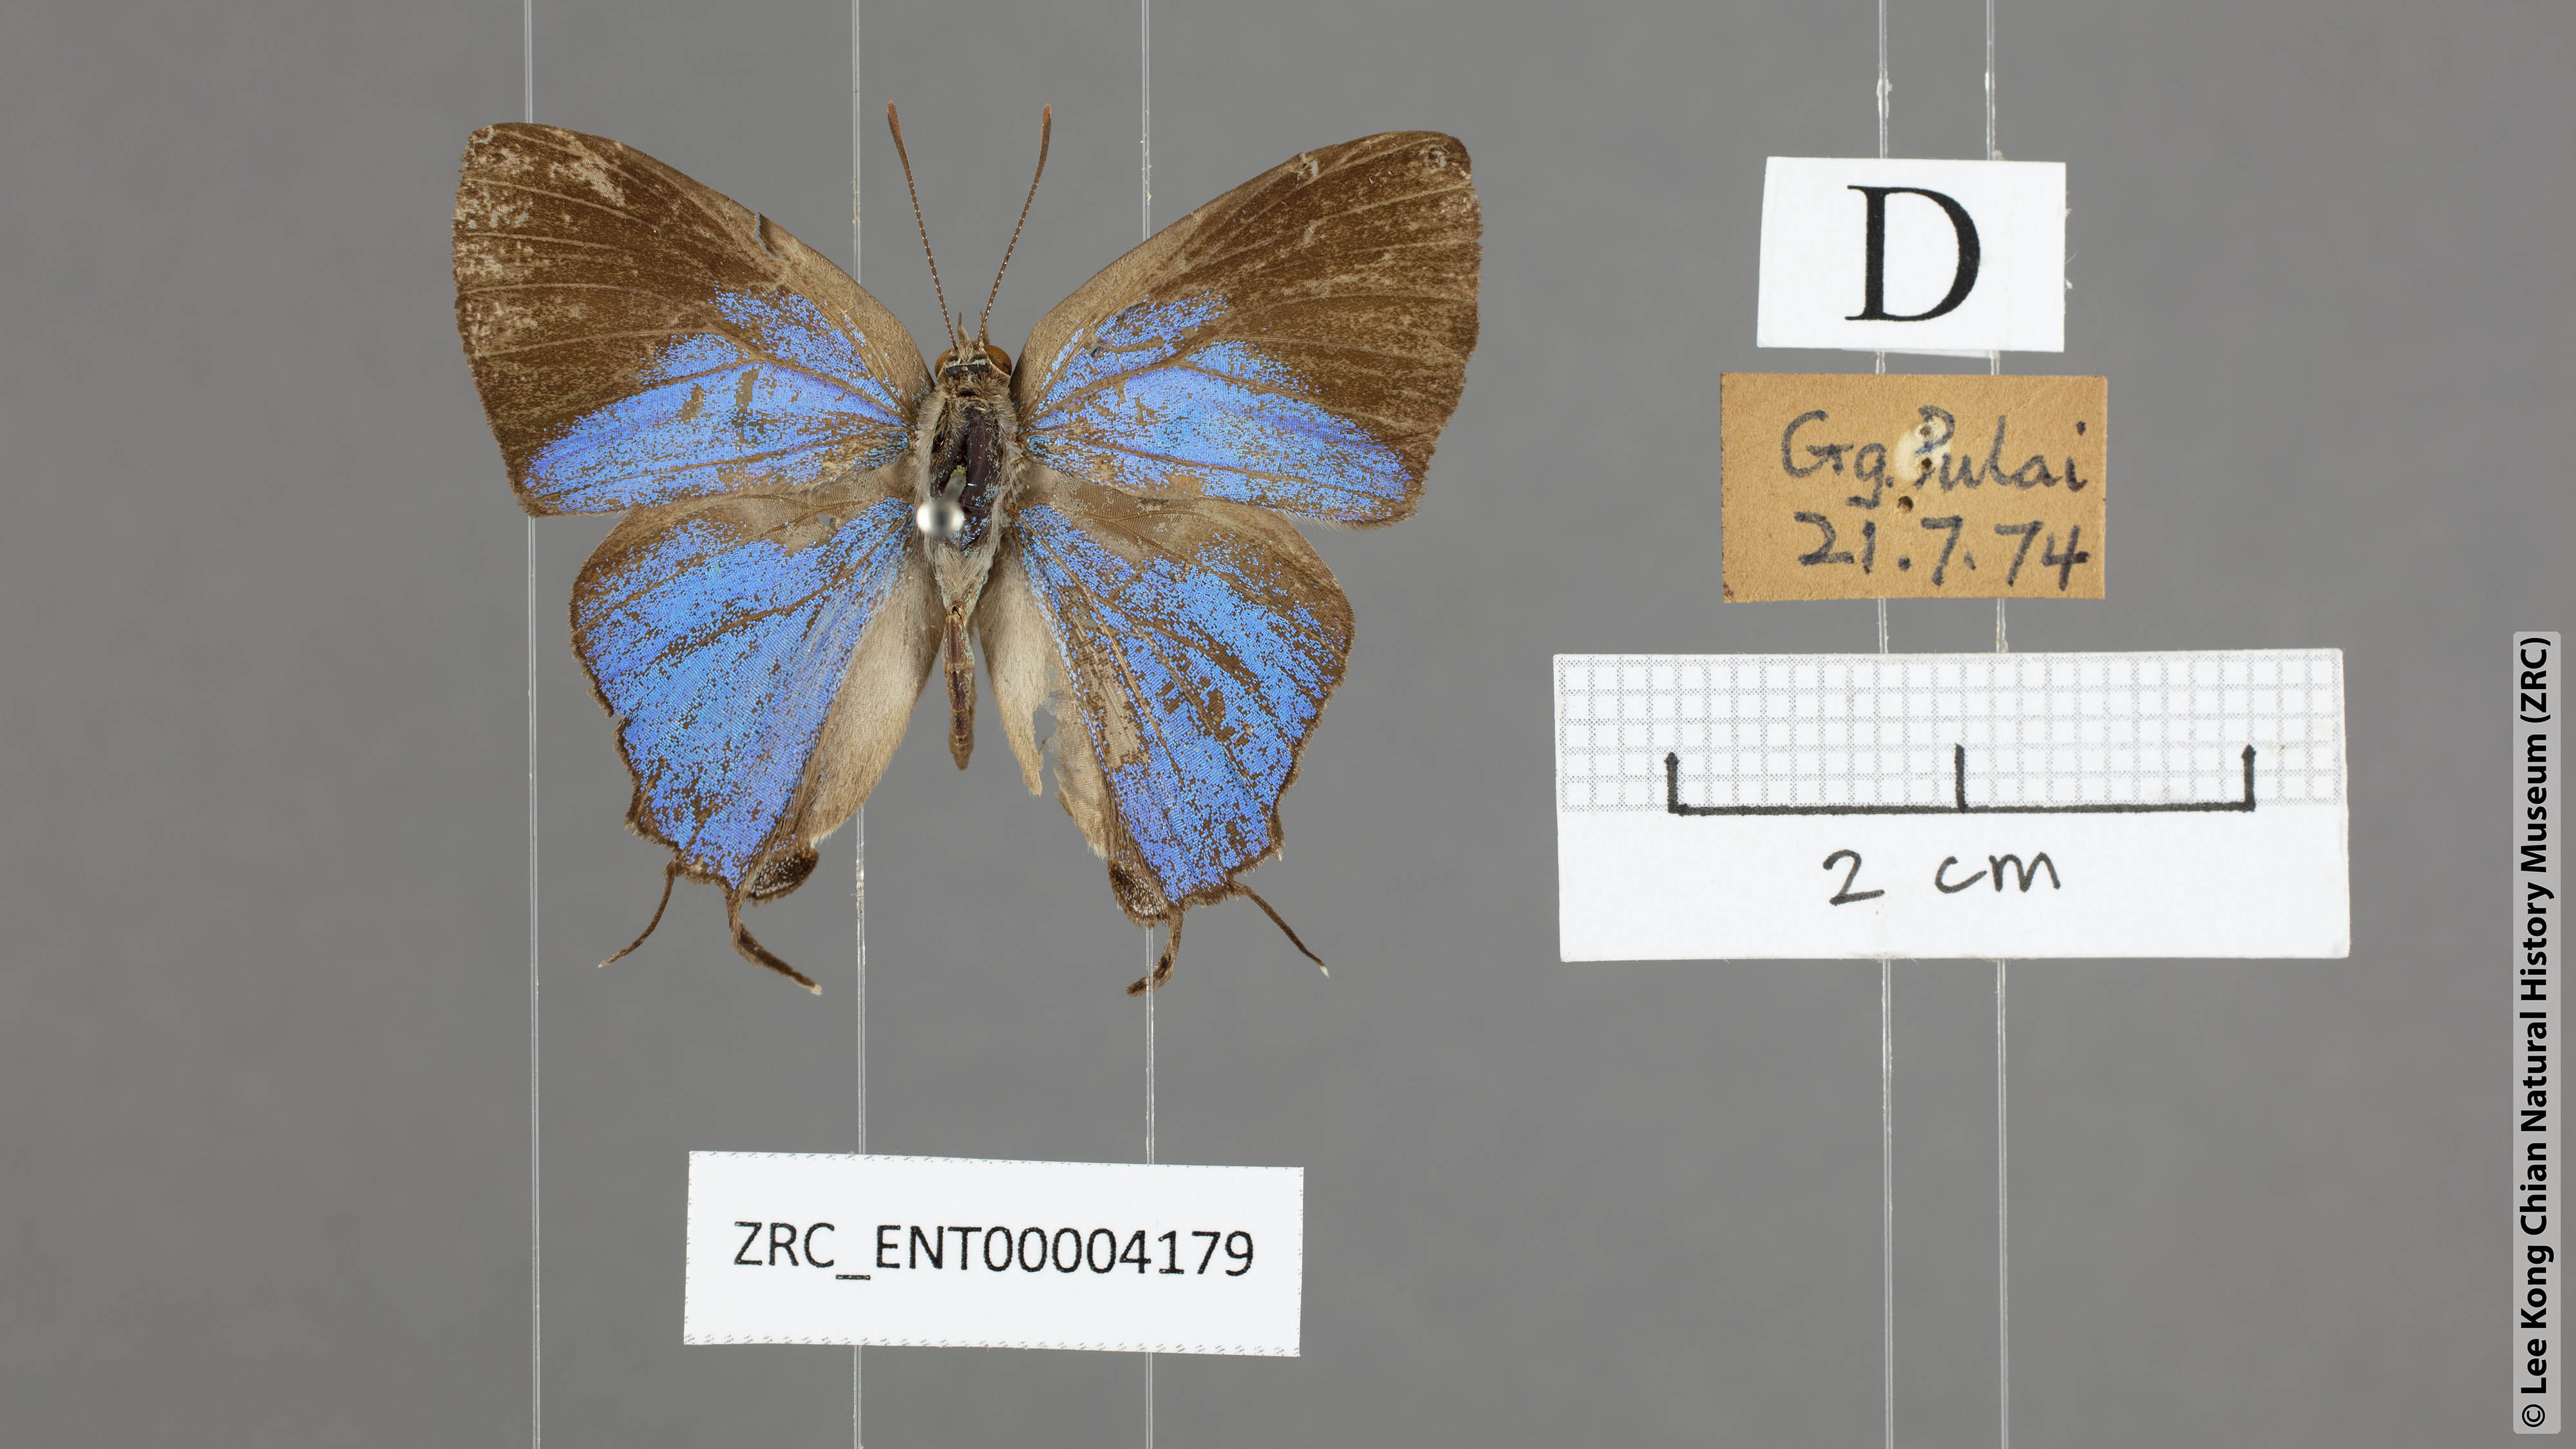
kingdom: Animalia
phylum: Arthropoda
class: Insecta
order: Lepidoptera
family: Lycaenidae
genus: Creon
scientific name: Creon cleobis
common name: Broad-tail royal
